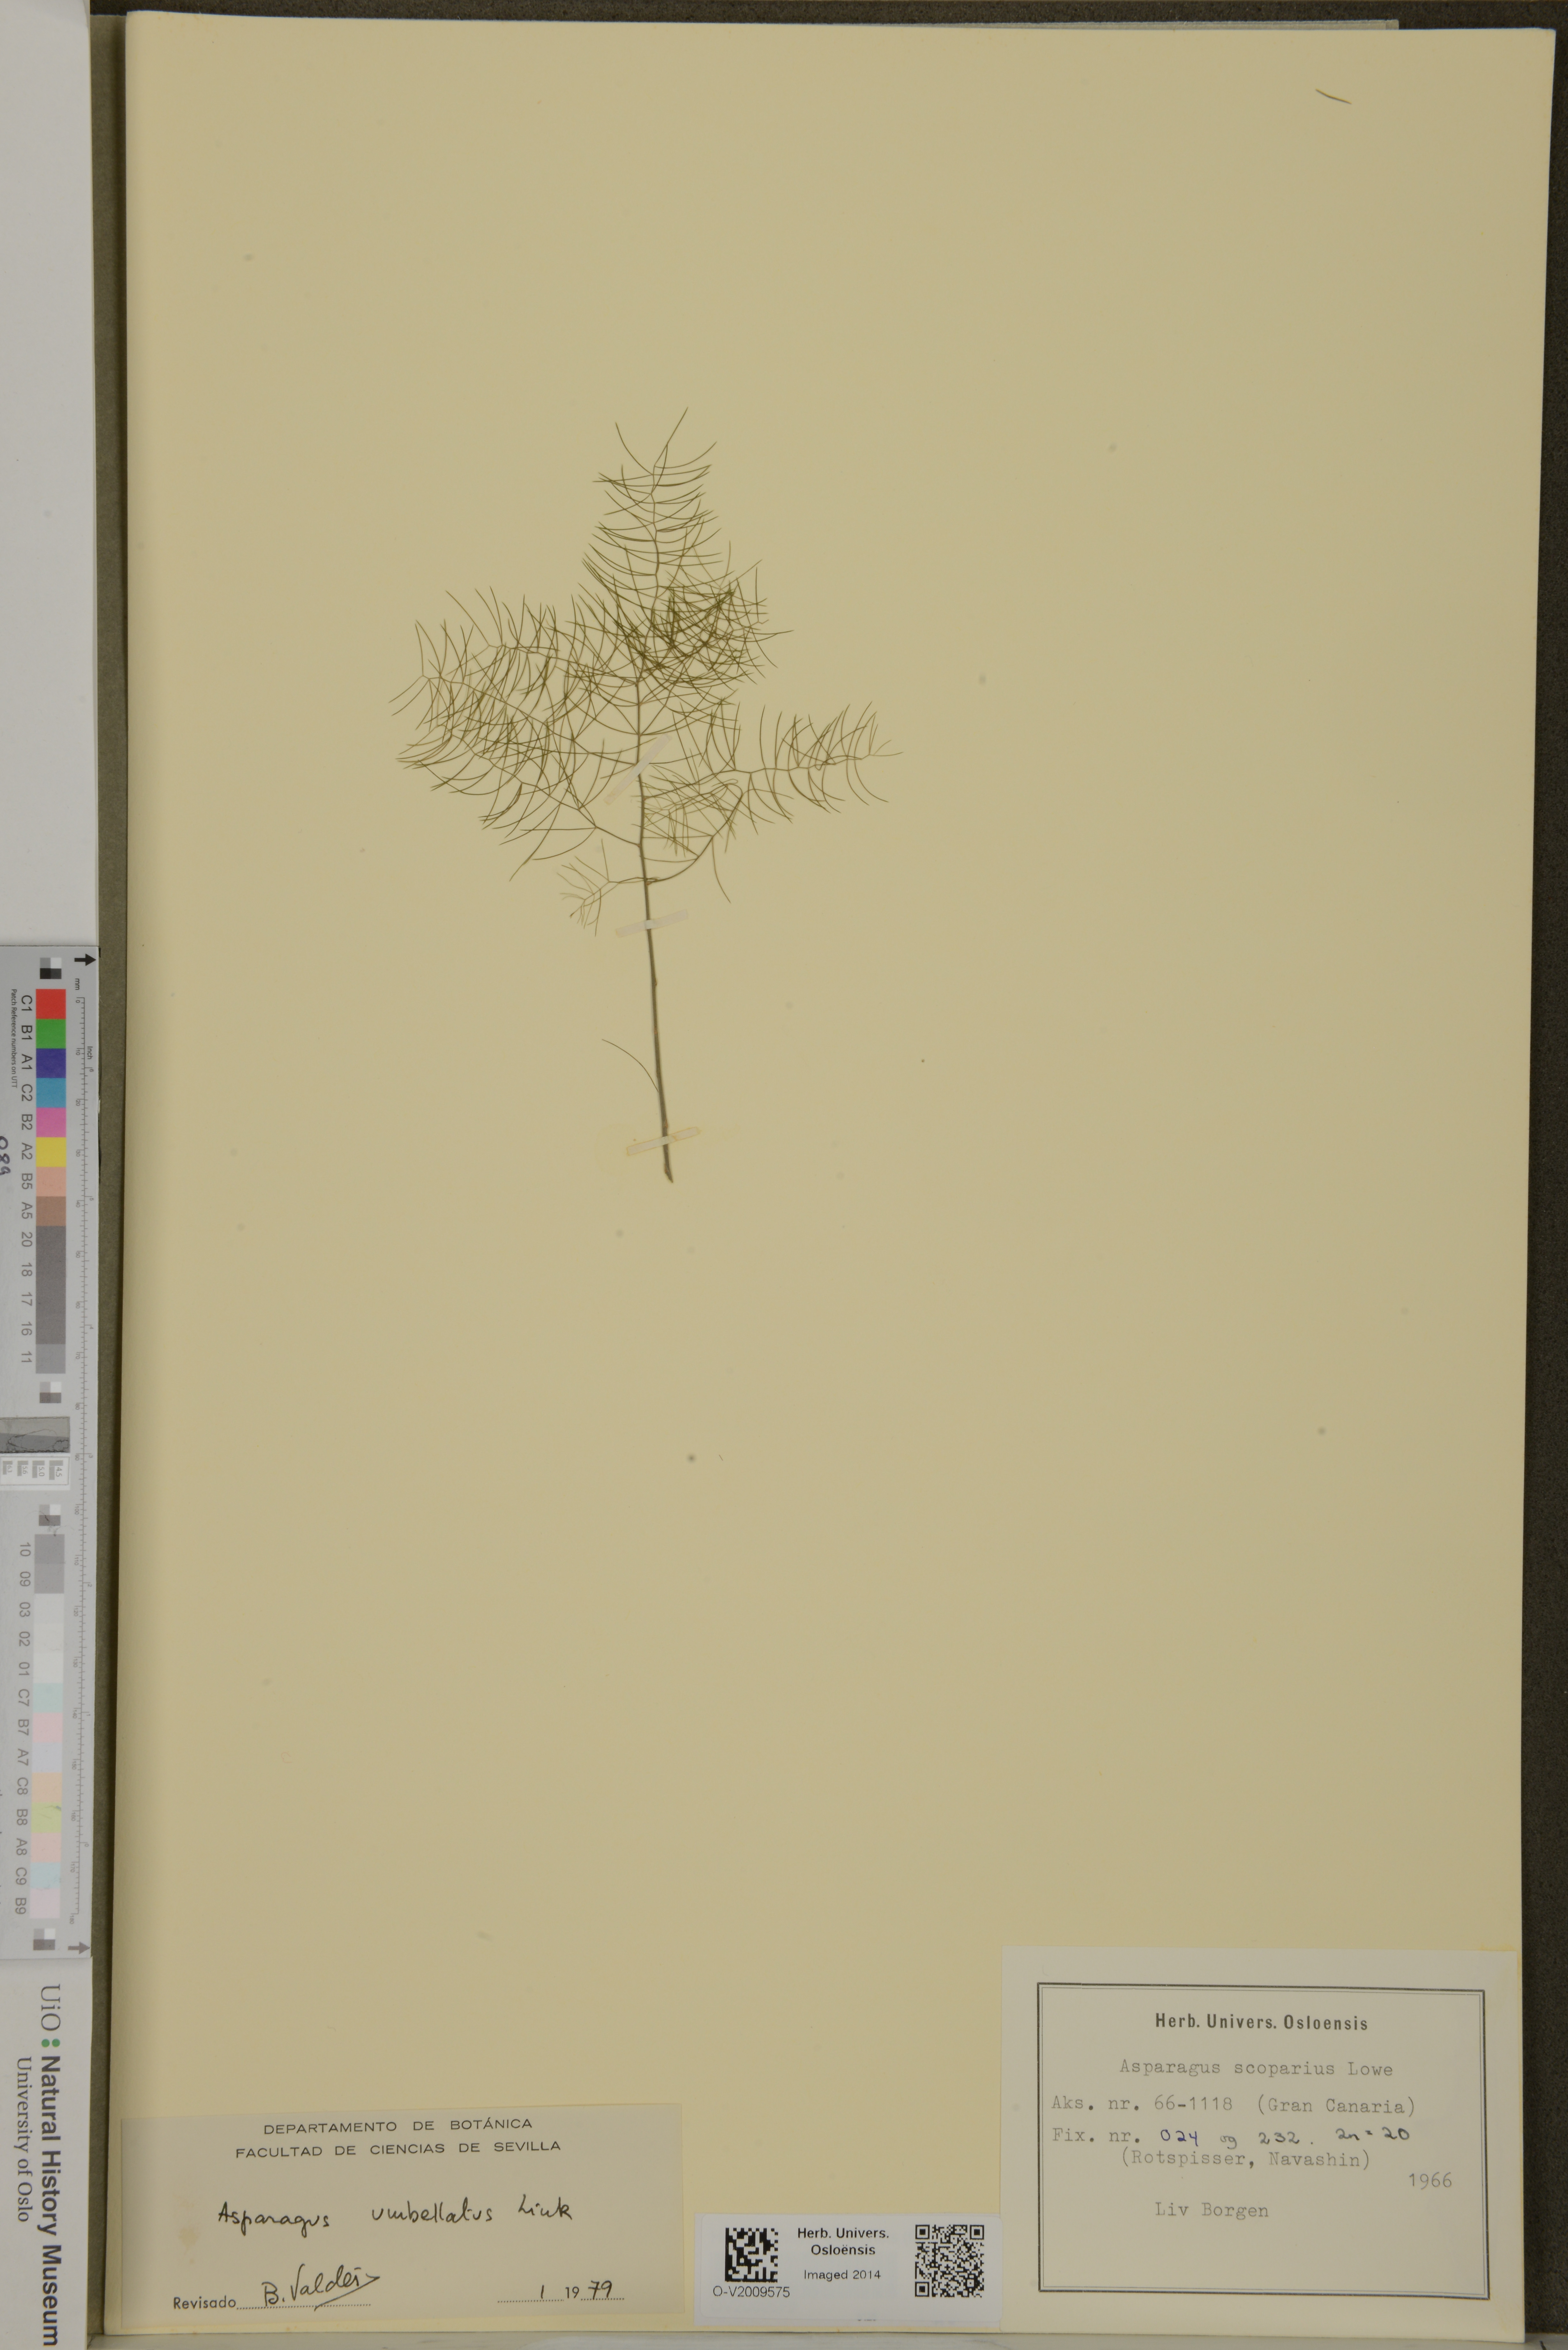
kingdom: Plantae
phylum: Tracheophyta
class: Liliopsida
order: Asparagales
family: Asparagaceae
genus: Asparagus
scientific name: Asparagus umbellatus
